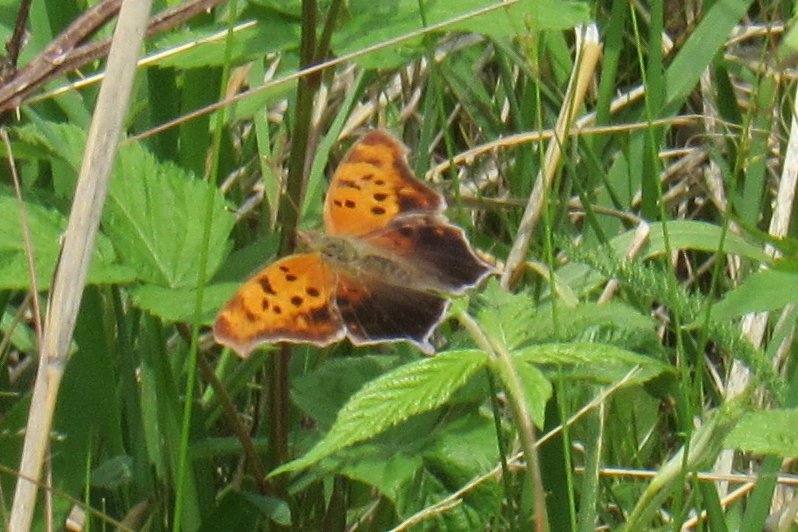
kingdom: Animalia
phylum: Arthropoda
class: Insecta
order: Lepidoptera
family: Nymphalidae
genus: Polygonia
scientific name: Polygonia interrogationis
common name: Question Mark
